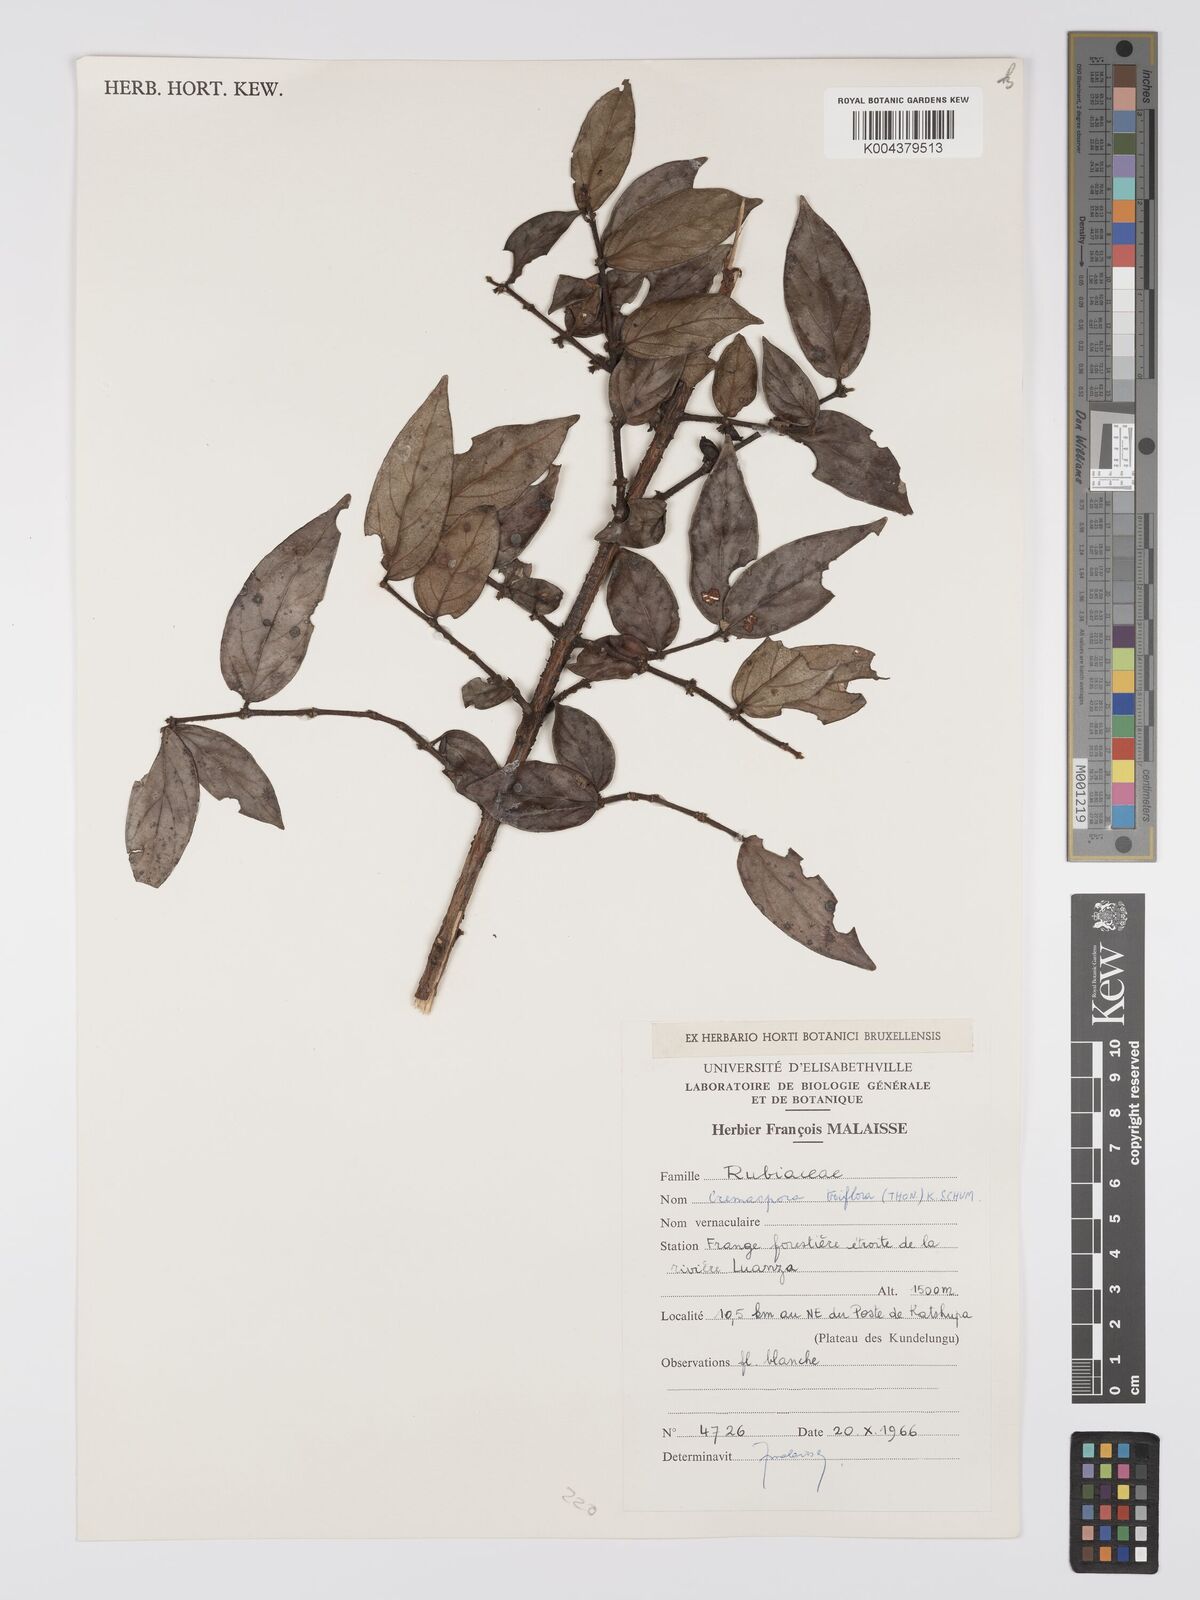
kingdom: Plantae
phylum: Tracheophyta
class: Magnoliopsida
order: Gentianales
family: Rubiaceae
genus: Cremaspora
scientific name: Cremaspora triflora
